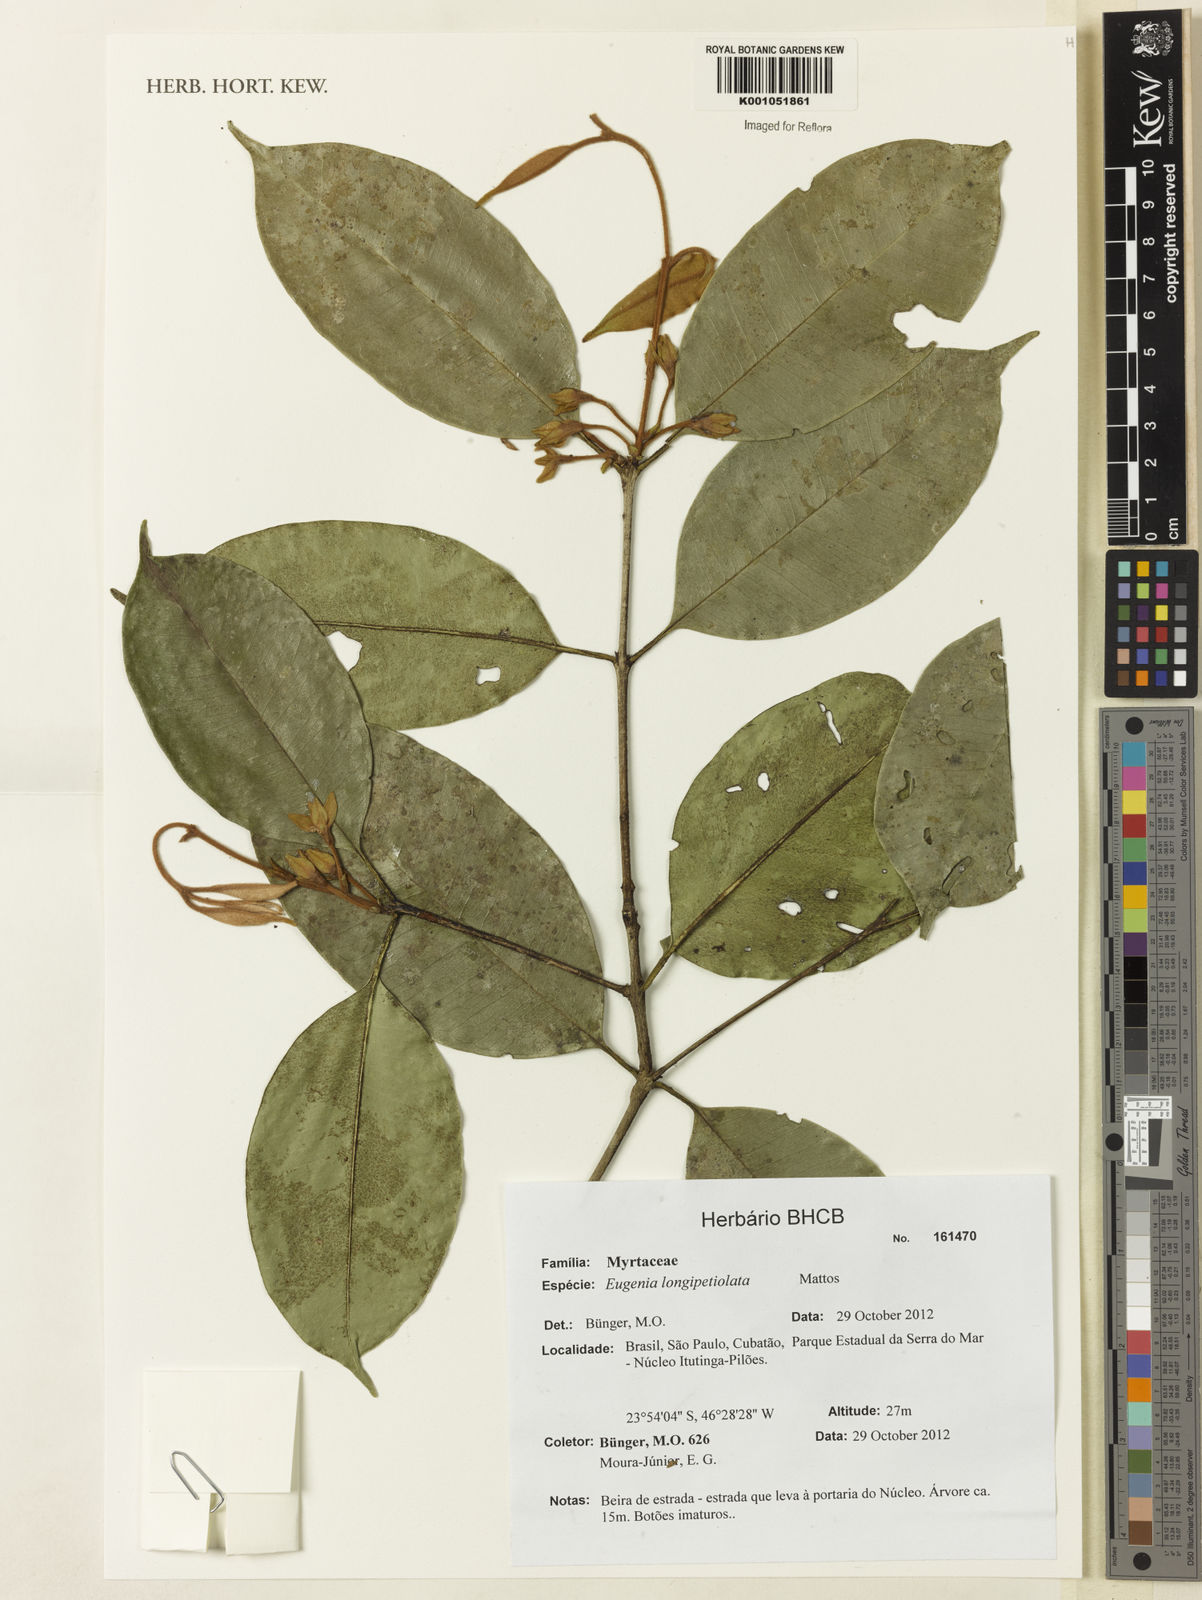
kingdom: Plantae
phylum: Tracheophyta
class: Magnoliopsida
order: Myrtales
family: Myrtaceae
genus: Eugenia
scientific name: Eugenia longipetiolata
